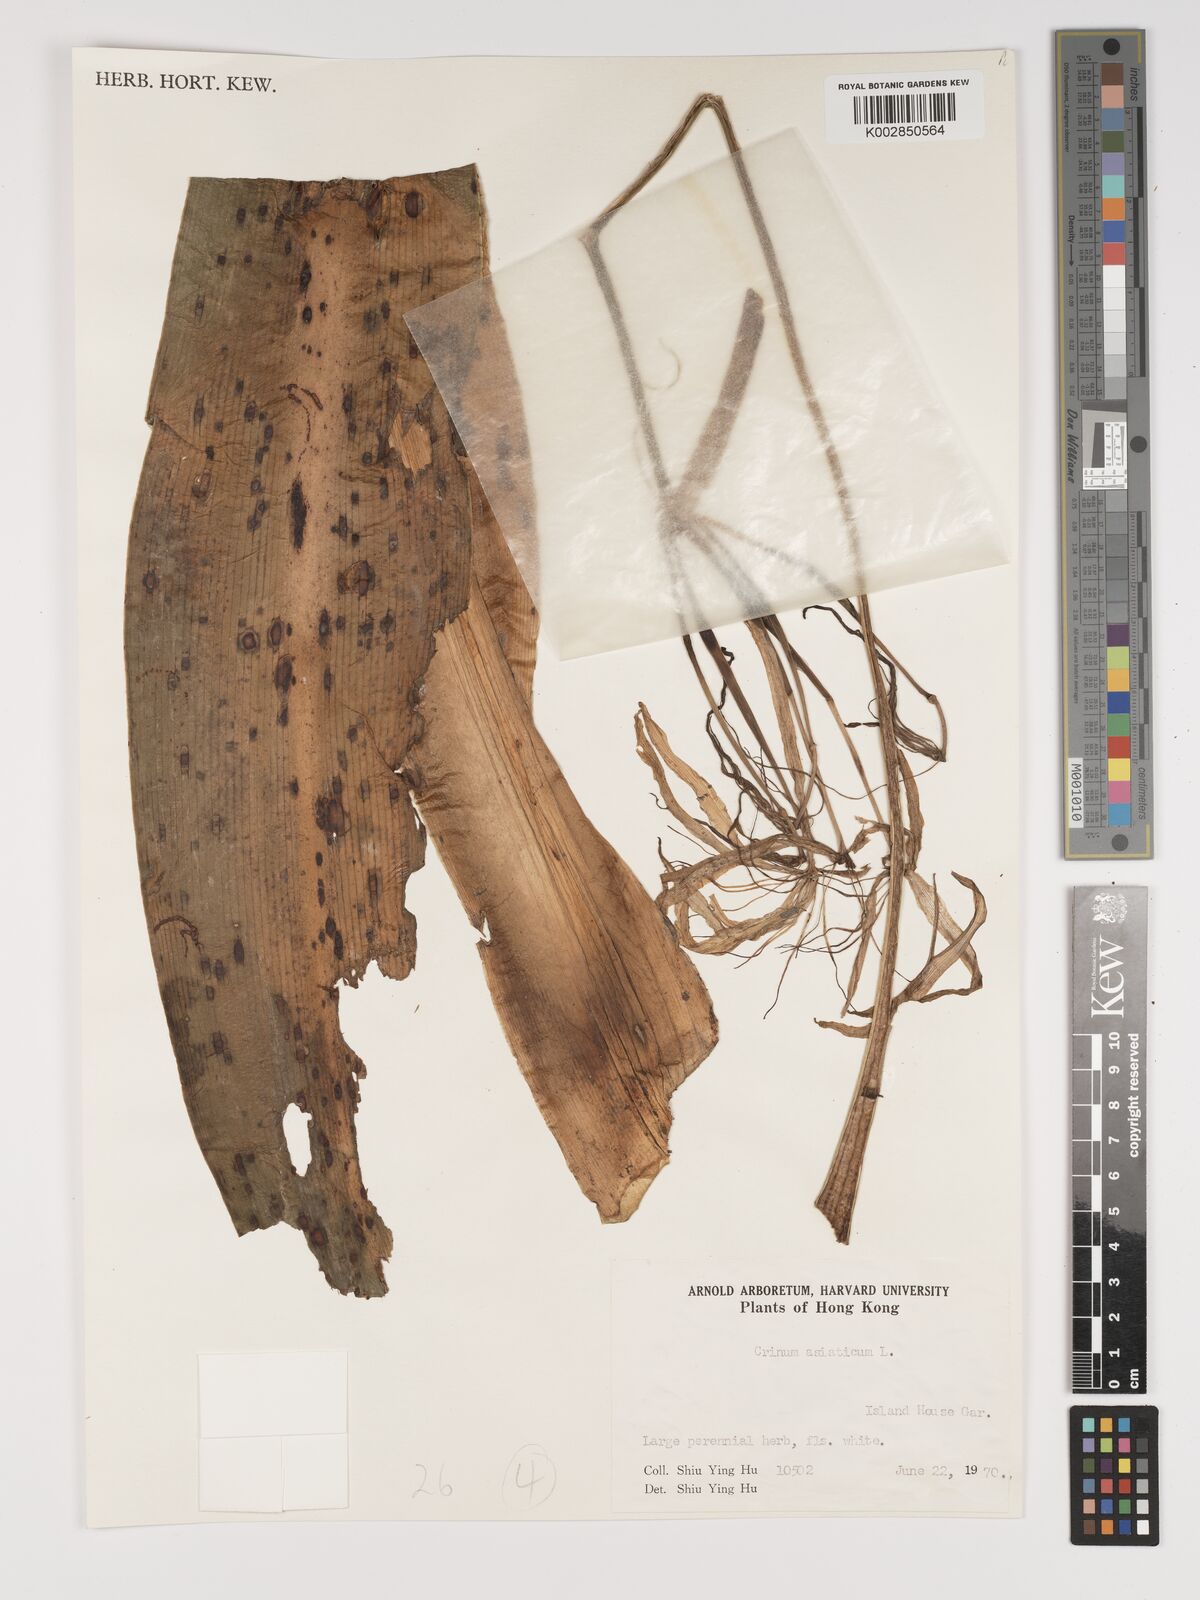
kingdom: Plantae
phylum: Tracheophyta
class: Liliopsida
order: Asparagales
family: Amaryllidaceae
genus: Crinum
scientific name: Crinum asiaticum
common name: Poisonbulb
